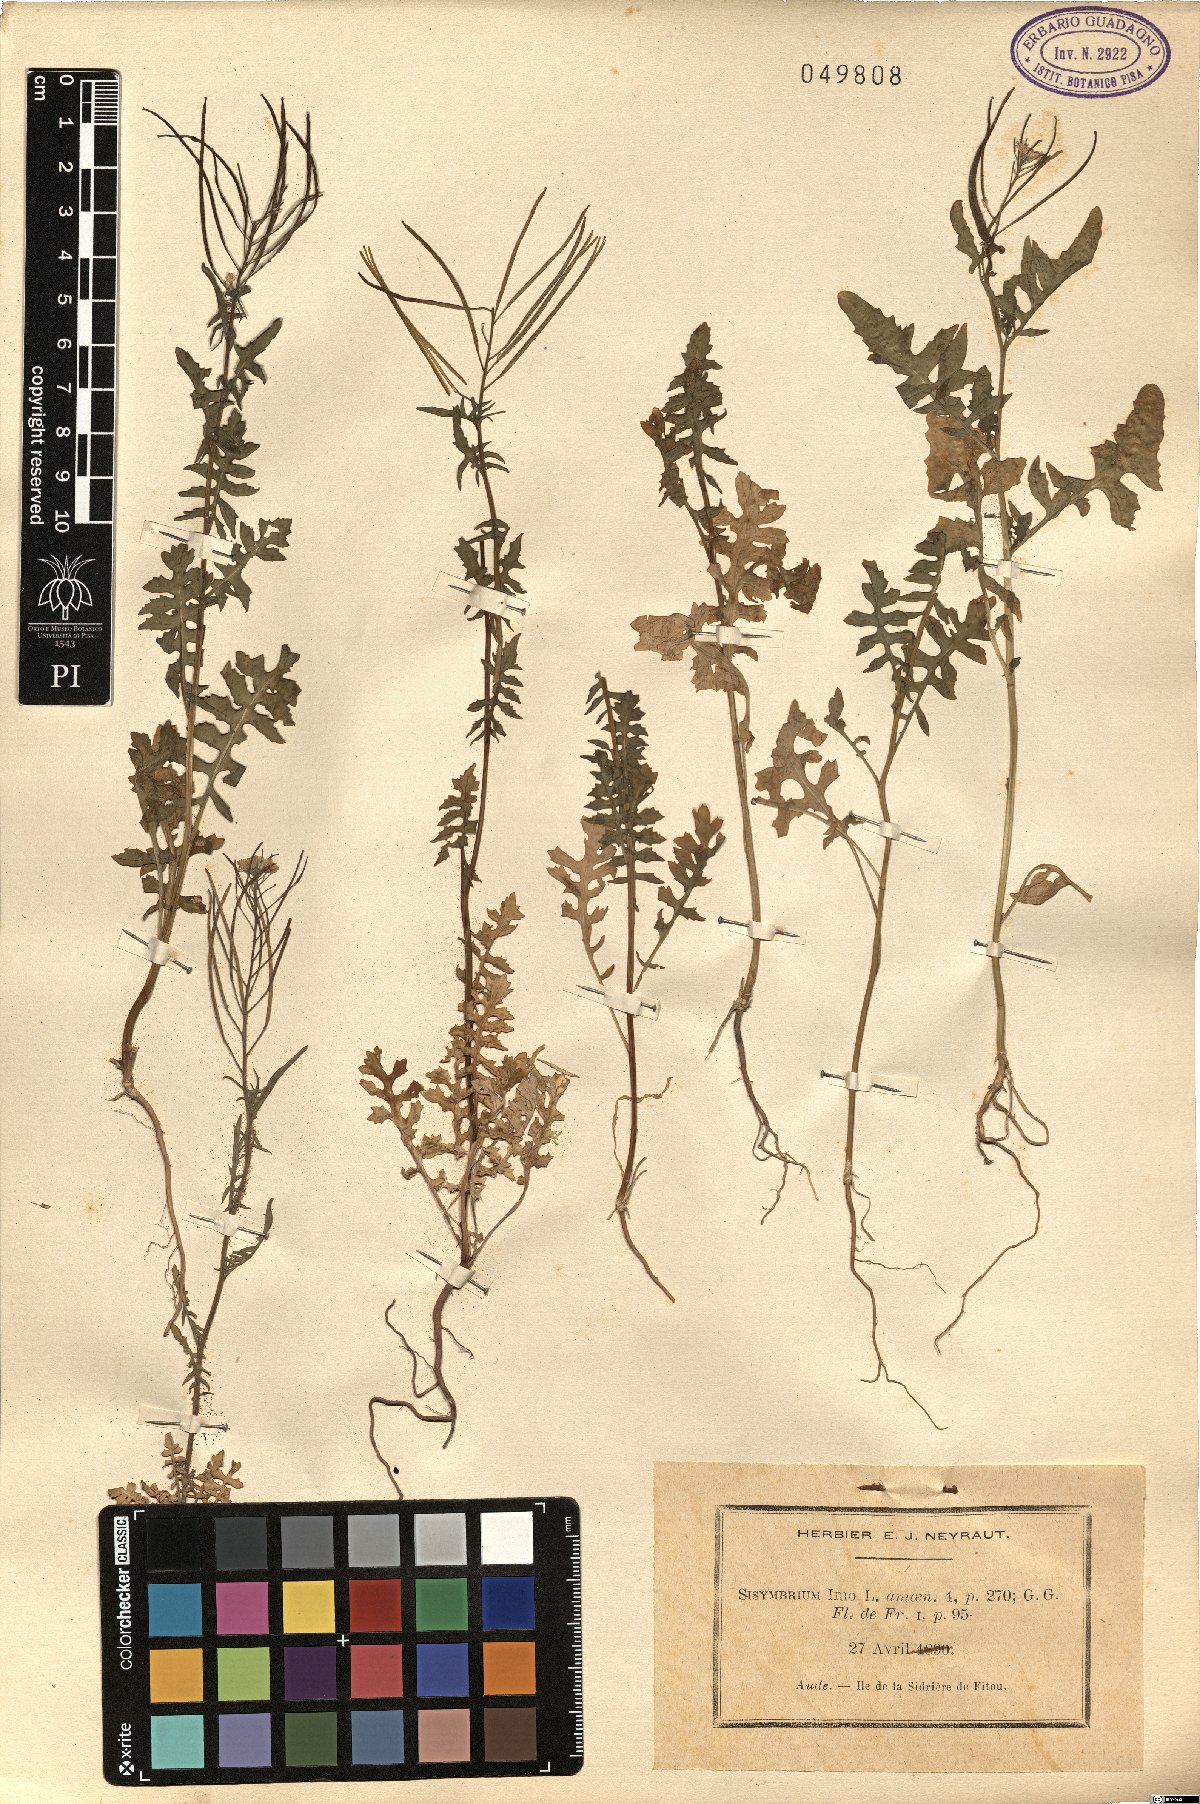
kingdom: Plantae
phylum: Tracheophyta
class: Magnoliopsida
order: Brassicales
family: Brassicaceae
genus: Sisymbrium
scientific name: Sisymbrium irio
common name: London rocket
